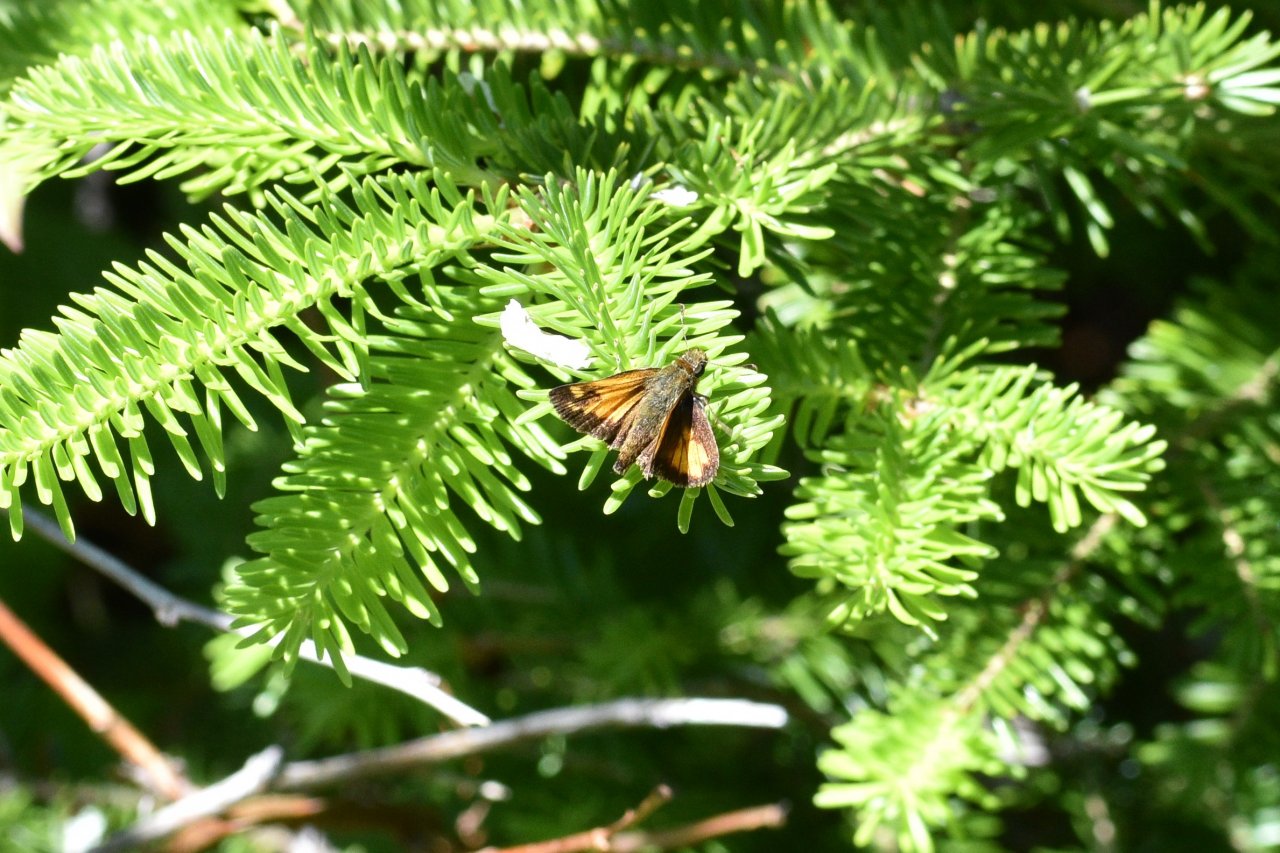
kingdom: Animalia
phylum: Arthropoda
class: Insecta
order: Lepidoptera
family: Hesperiidae
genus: Lon
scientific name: Lon hobomok
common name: Hobomok Skipper
